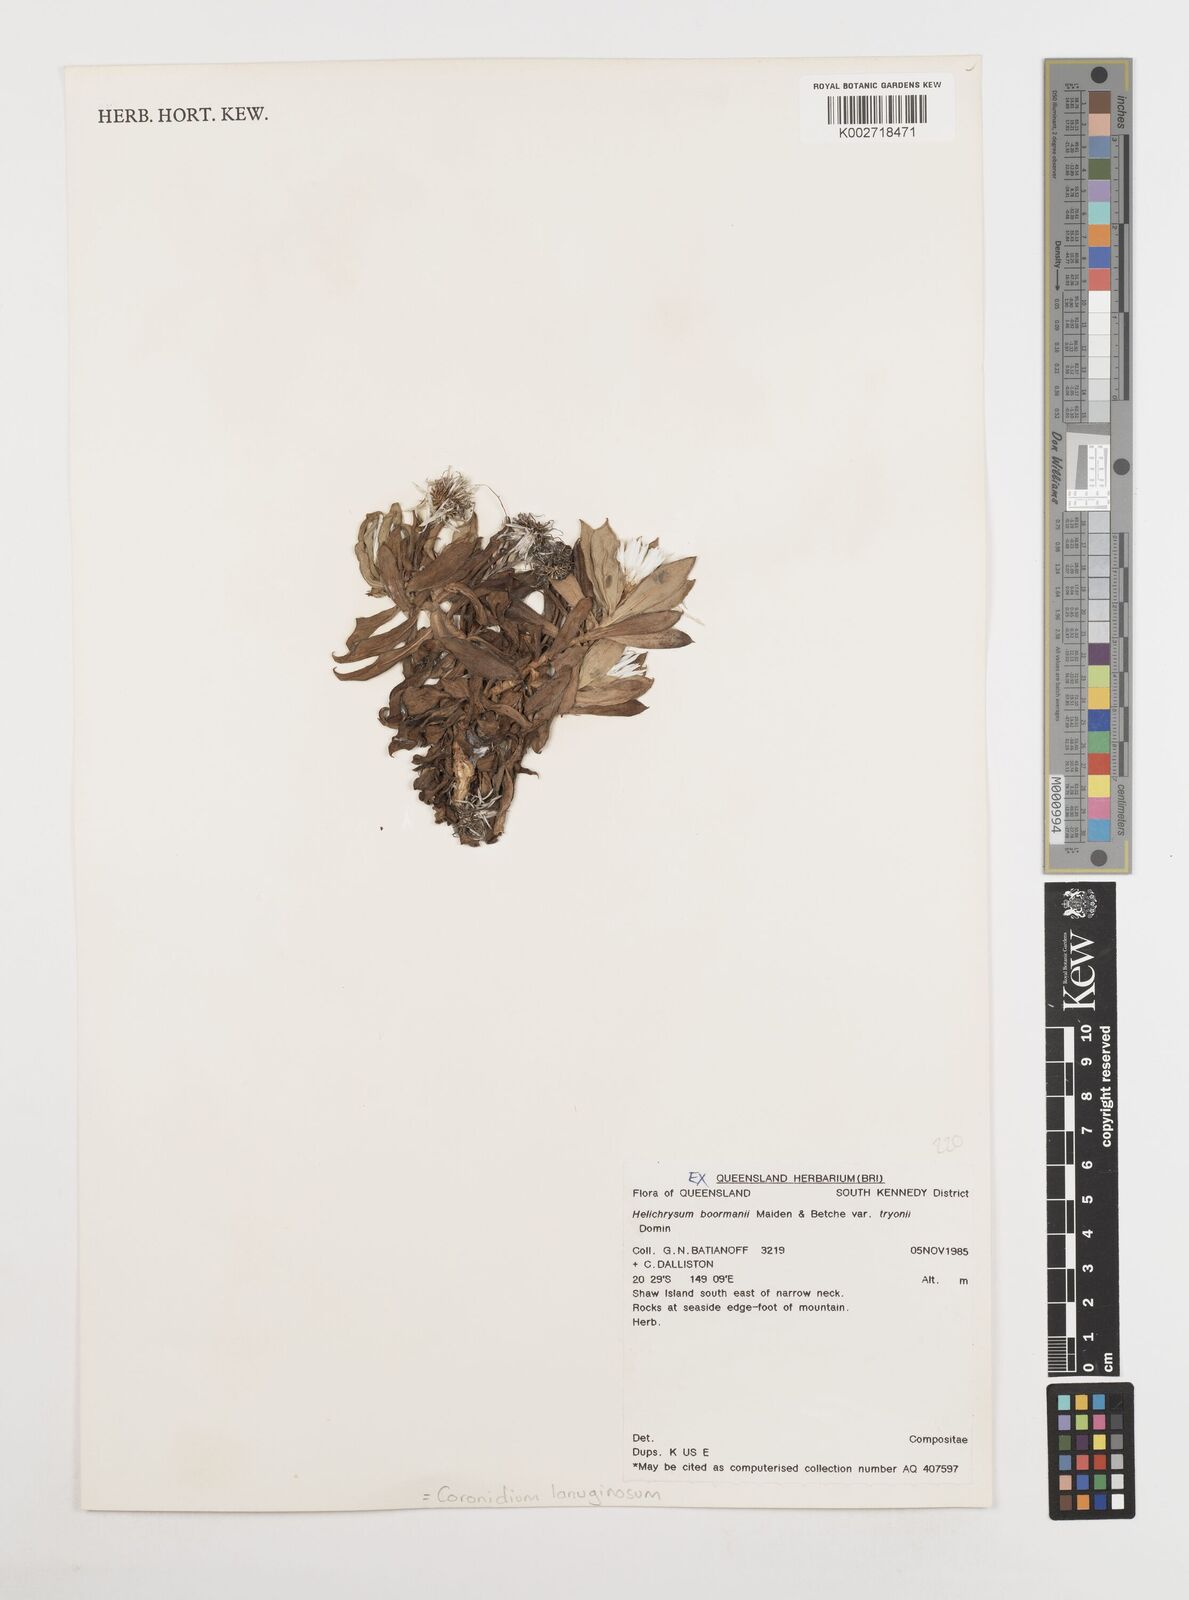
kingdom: Plantae
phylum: Tracheophyta
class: Magnoliopsida
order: Asterales
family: Asteraceae
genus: Coronidium
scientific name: Coronidium lanuginosum
